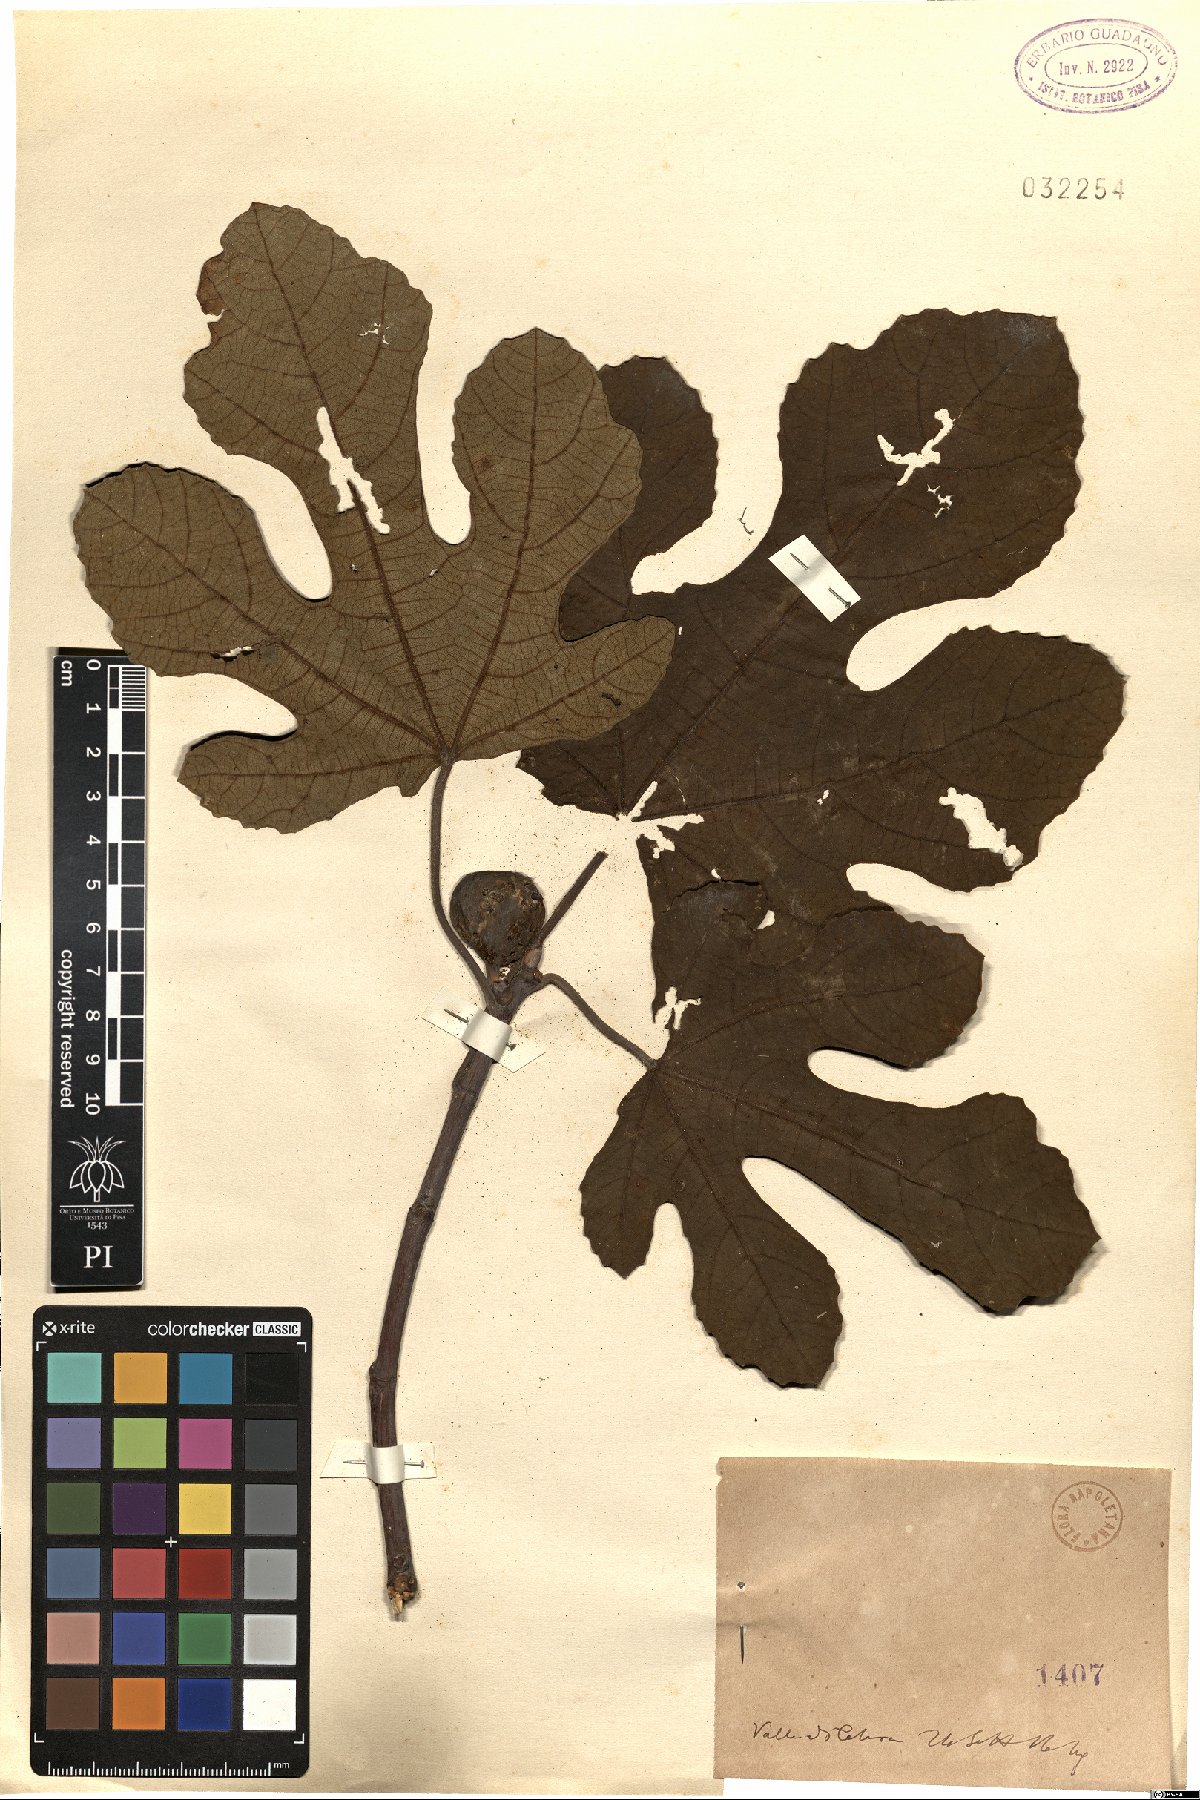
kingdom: Plantae
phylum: Tracheophyta
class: Magnoliopsida
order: Rosales
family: Moraceae
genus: Ficus
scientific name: Ficus
